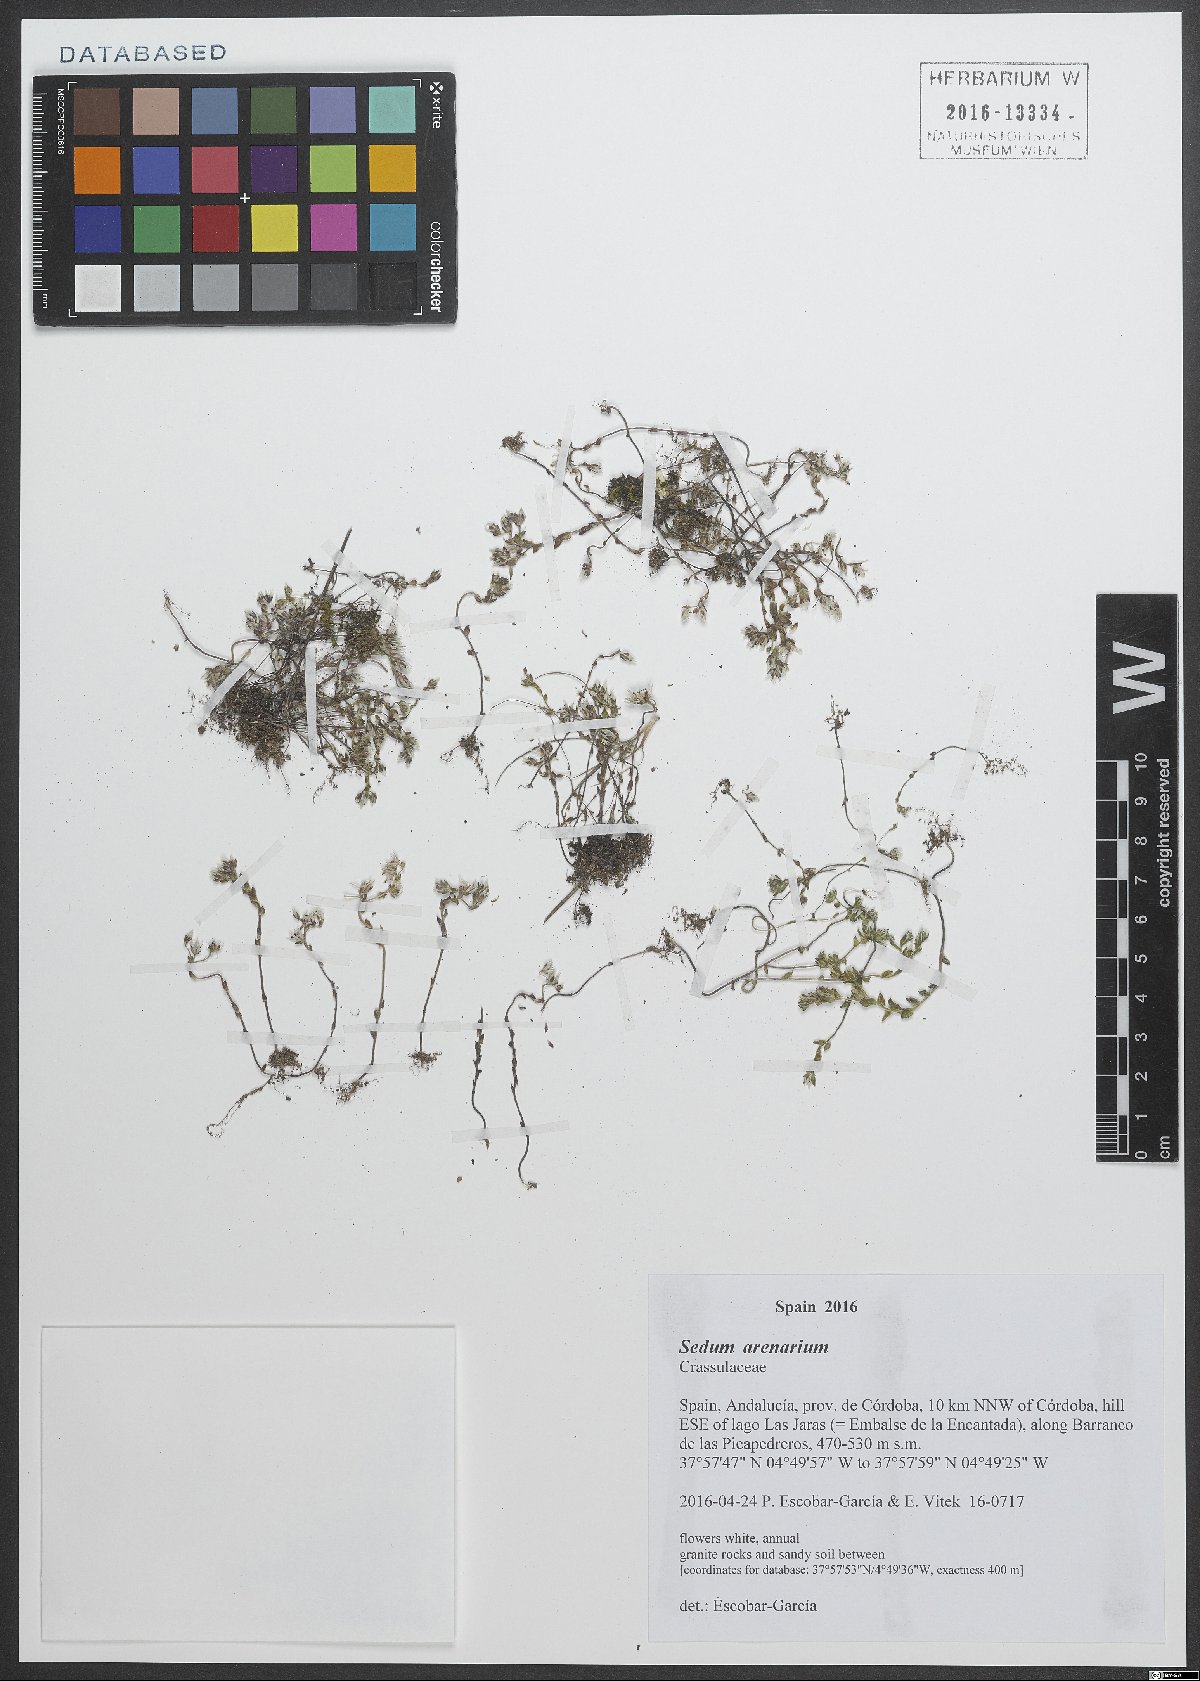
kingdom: Plantae
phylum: Tracheophyta
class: Magnoliopsida
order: Saxifragales
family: Crassulaceae
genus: Sedum
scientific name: Sedum arenarium
